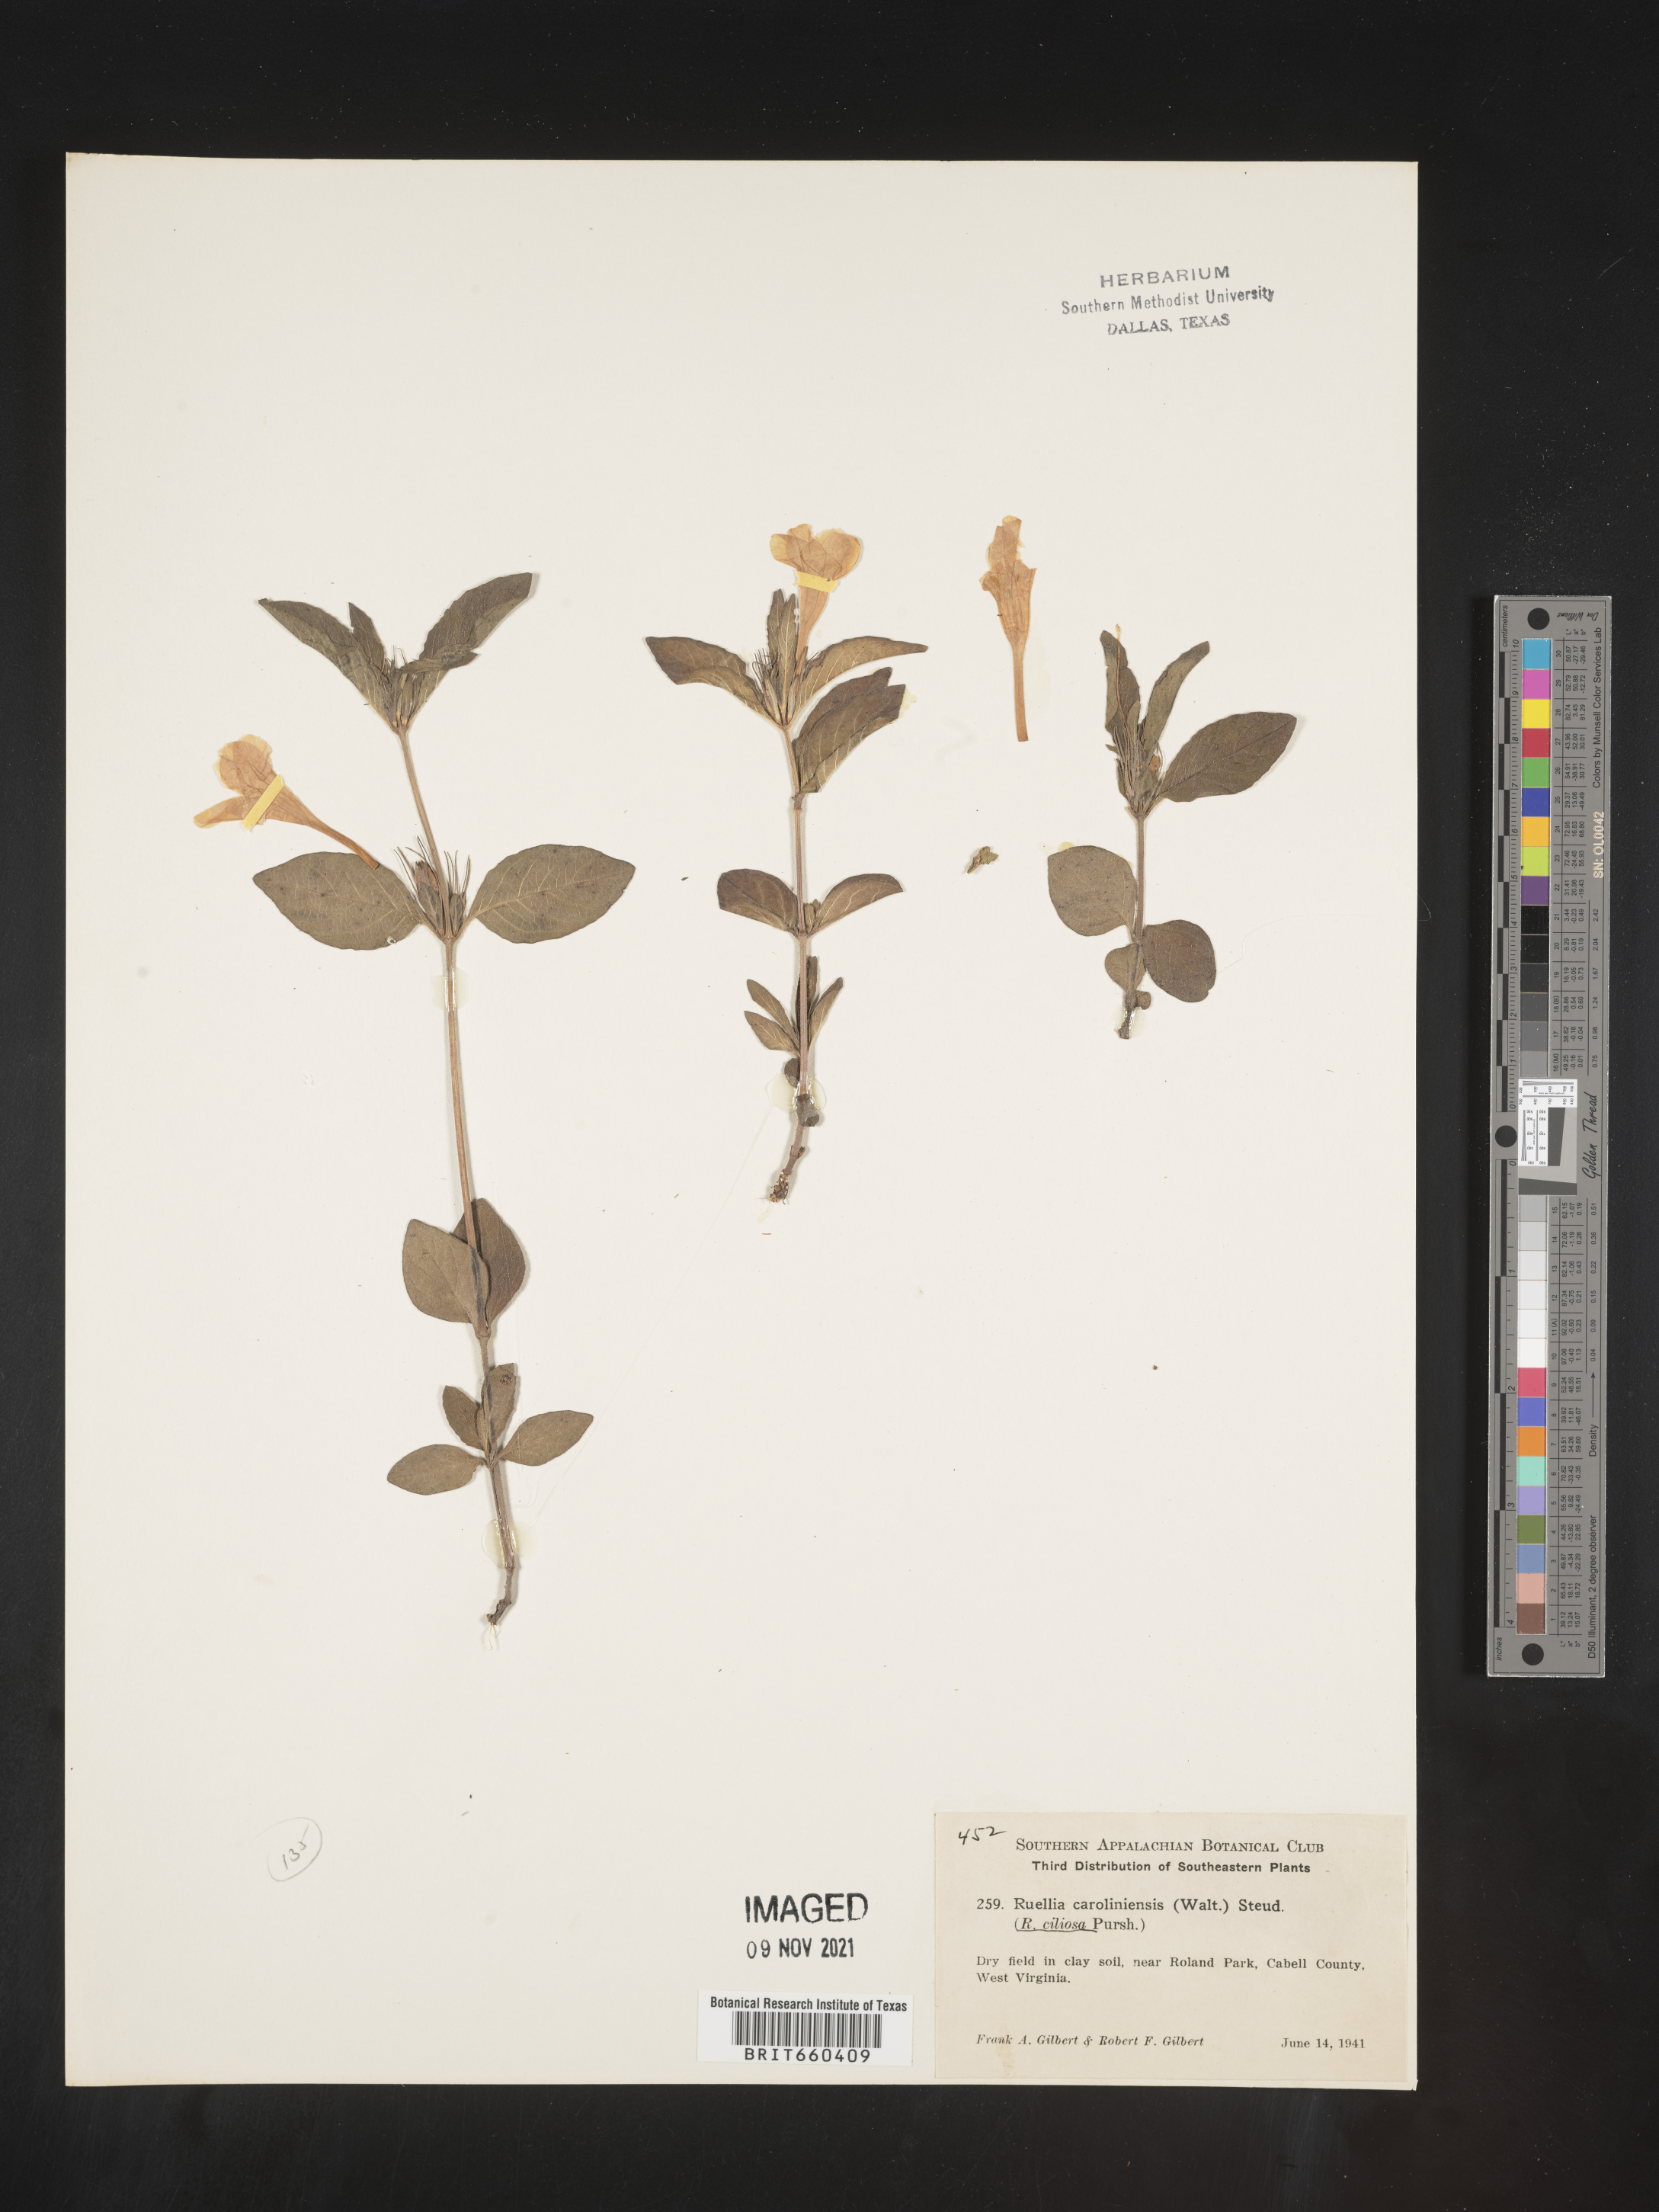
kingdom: Plantae
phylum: Tracheophyta
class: Magnoliopsida
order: Lamiales
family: Acanthaceae
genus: Ruellia
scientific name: Ruellia caroliniensis
